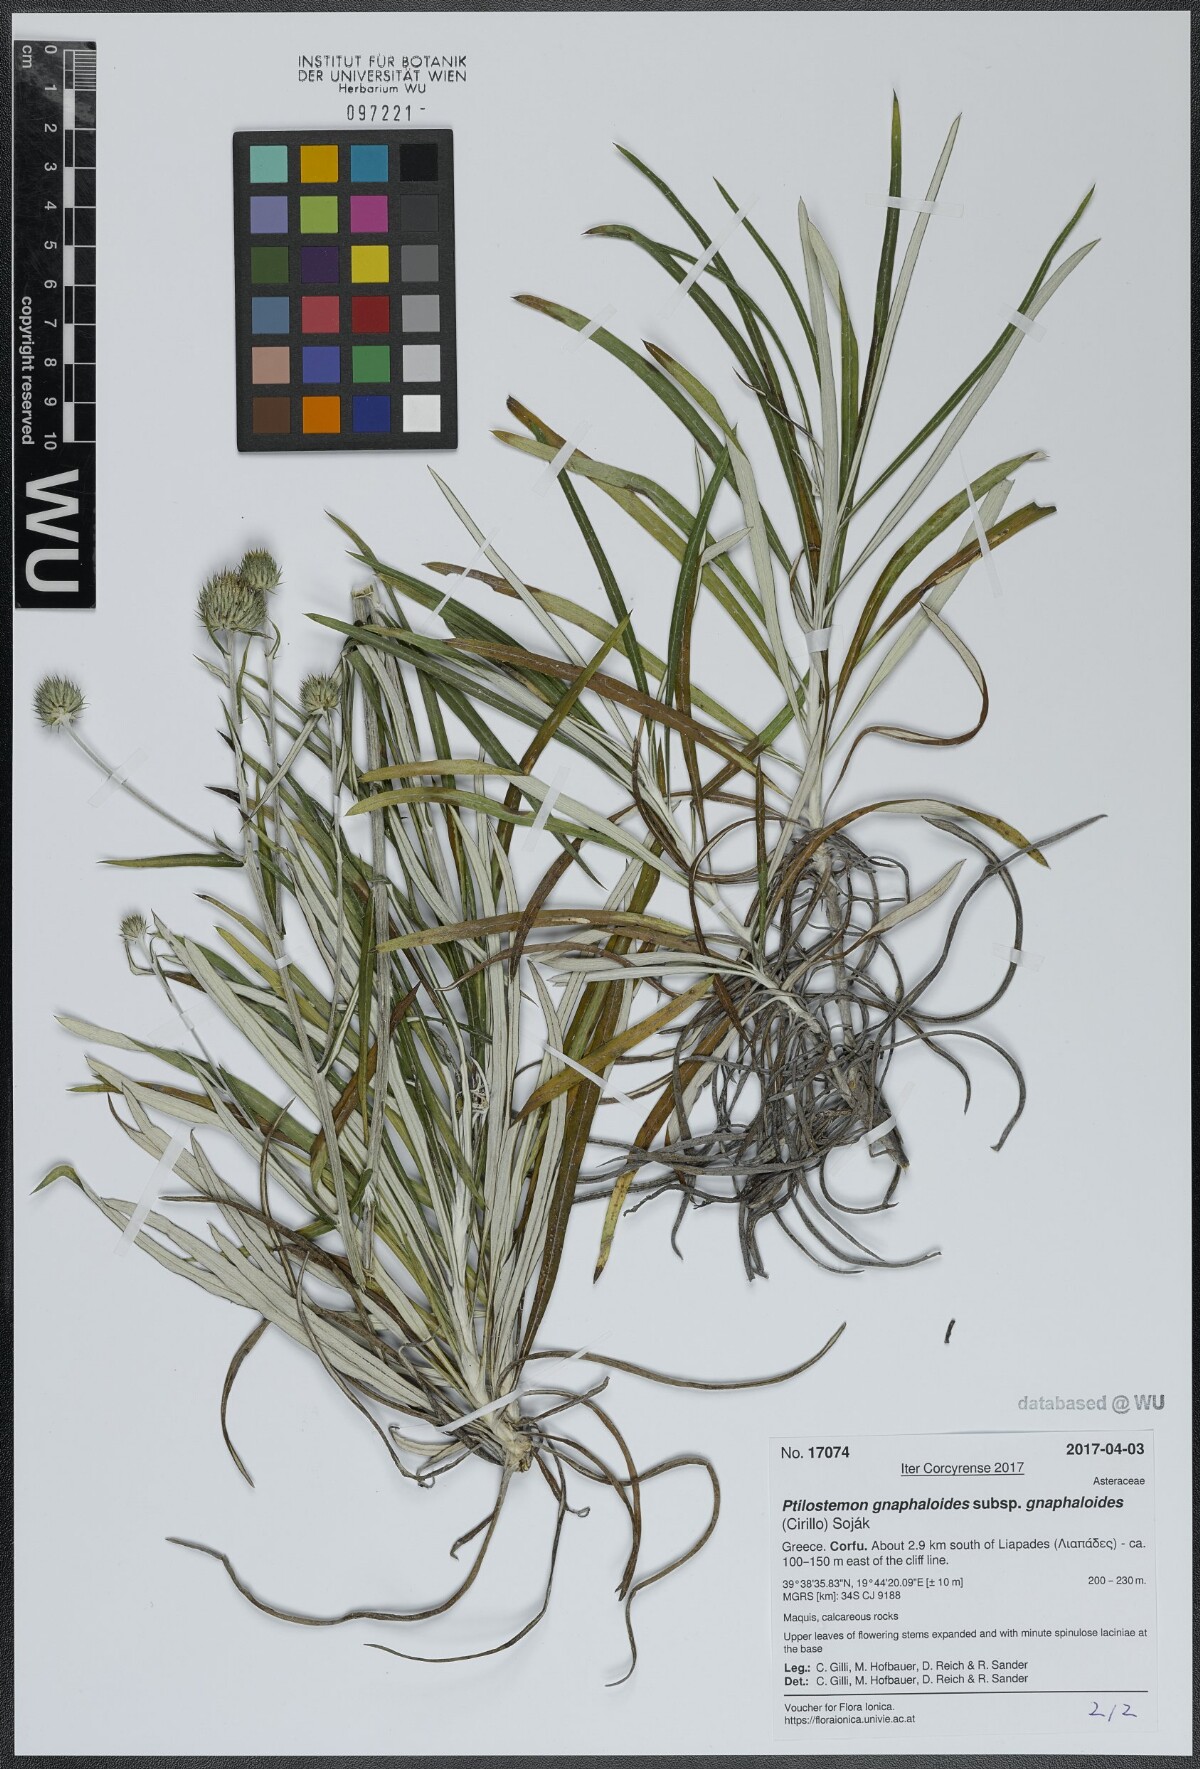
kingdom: Plantae
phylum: Tracheophyta
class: Magnoliopsida
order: Asterales
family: Asteraceae
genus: Ptilostemon
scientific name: Ptilostemon gnaphaloides
